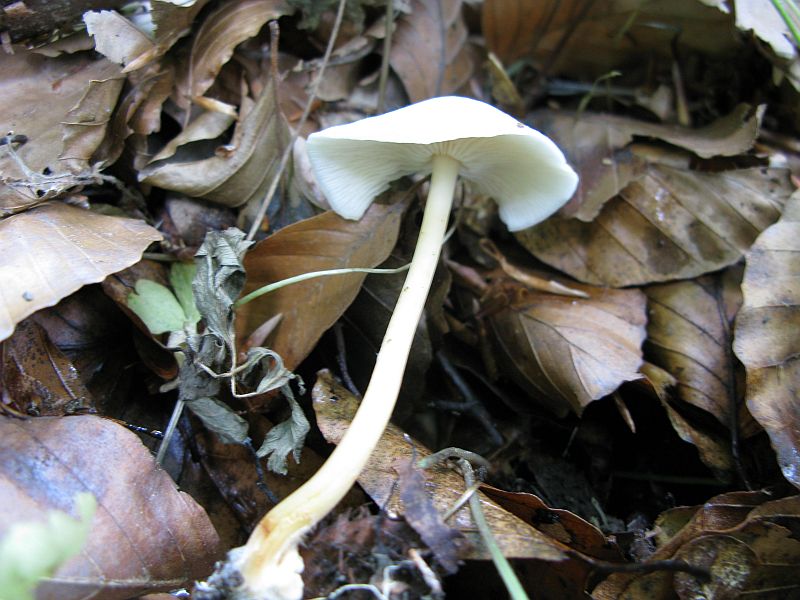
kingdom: Fungi
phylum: Basidiomycota
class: Agaricomycetes
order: Agaricales
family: Omphalotaceae
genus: Gymnopus
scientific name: Gymnopus aquosus
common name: bleg fladhat
